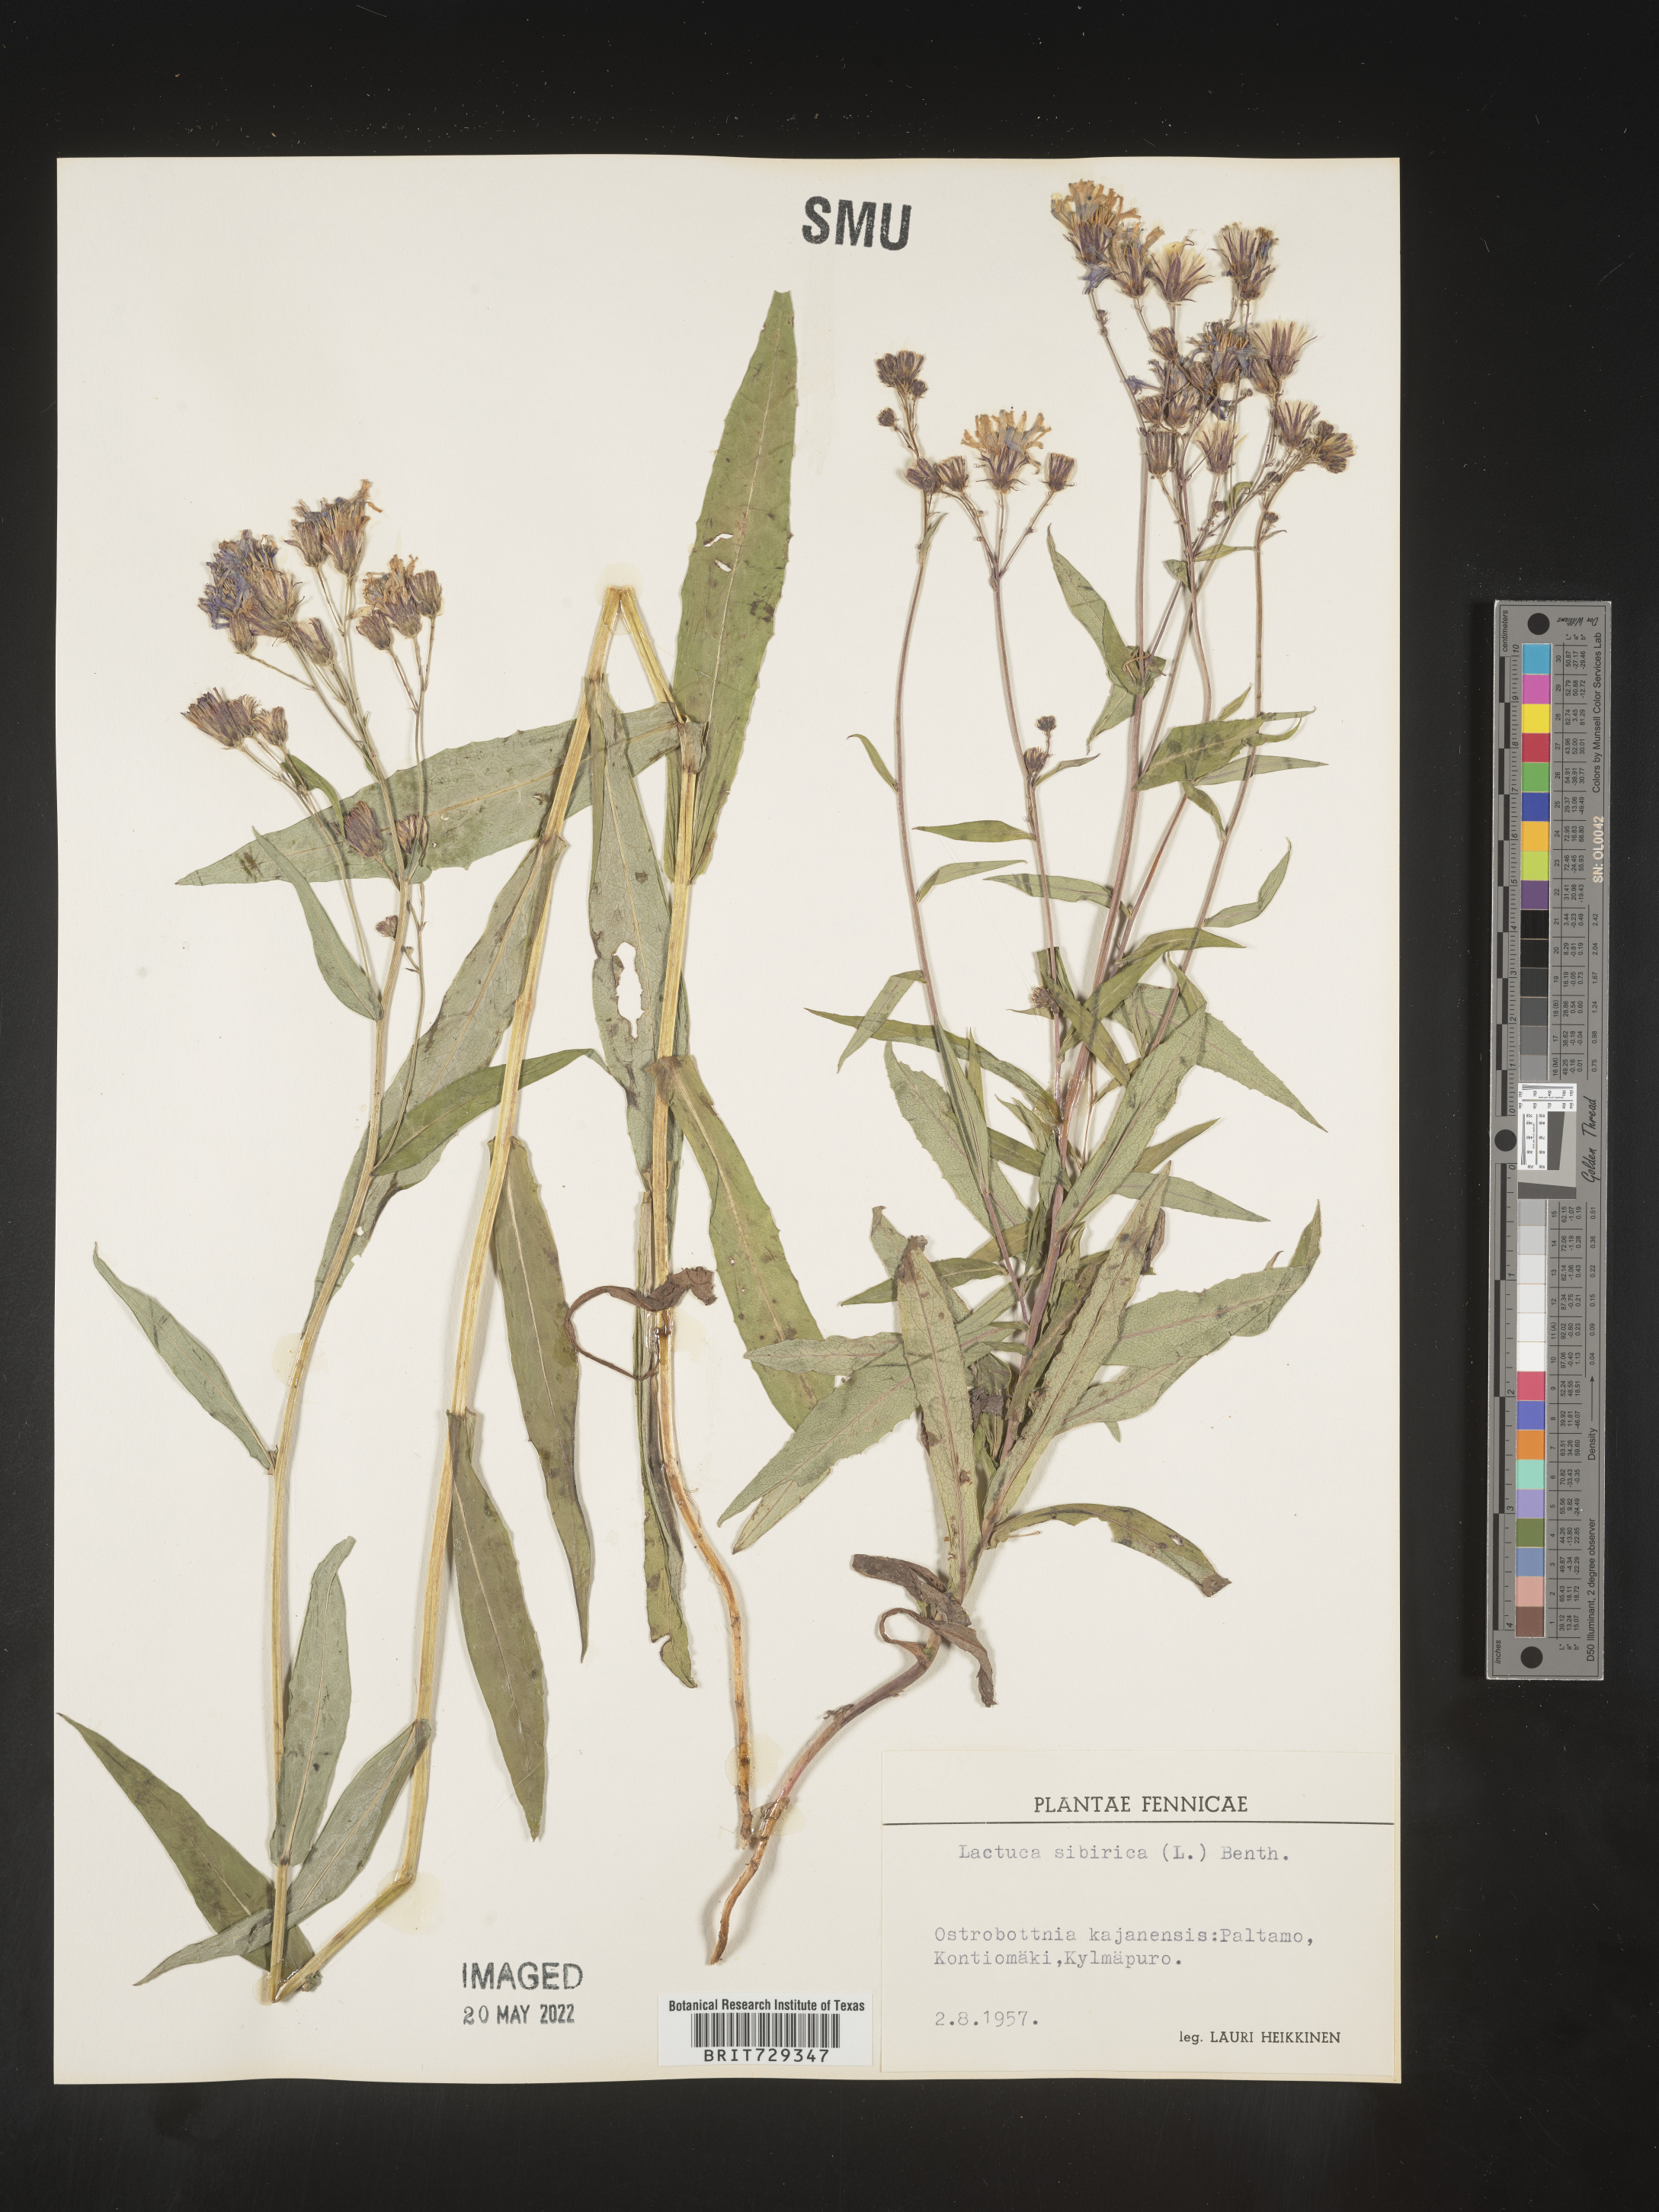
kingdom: Plantae
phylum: Tracheophyta
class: Magnoliopsida
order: Asterales
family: Asteraceae
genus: Lactuca
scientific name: Lactuca
